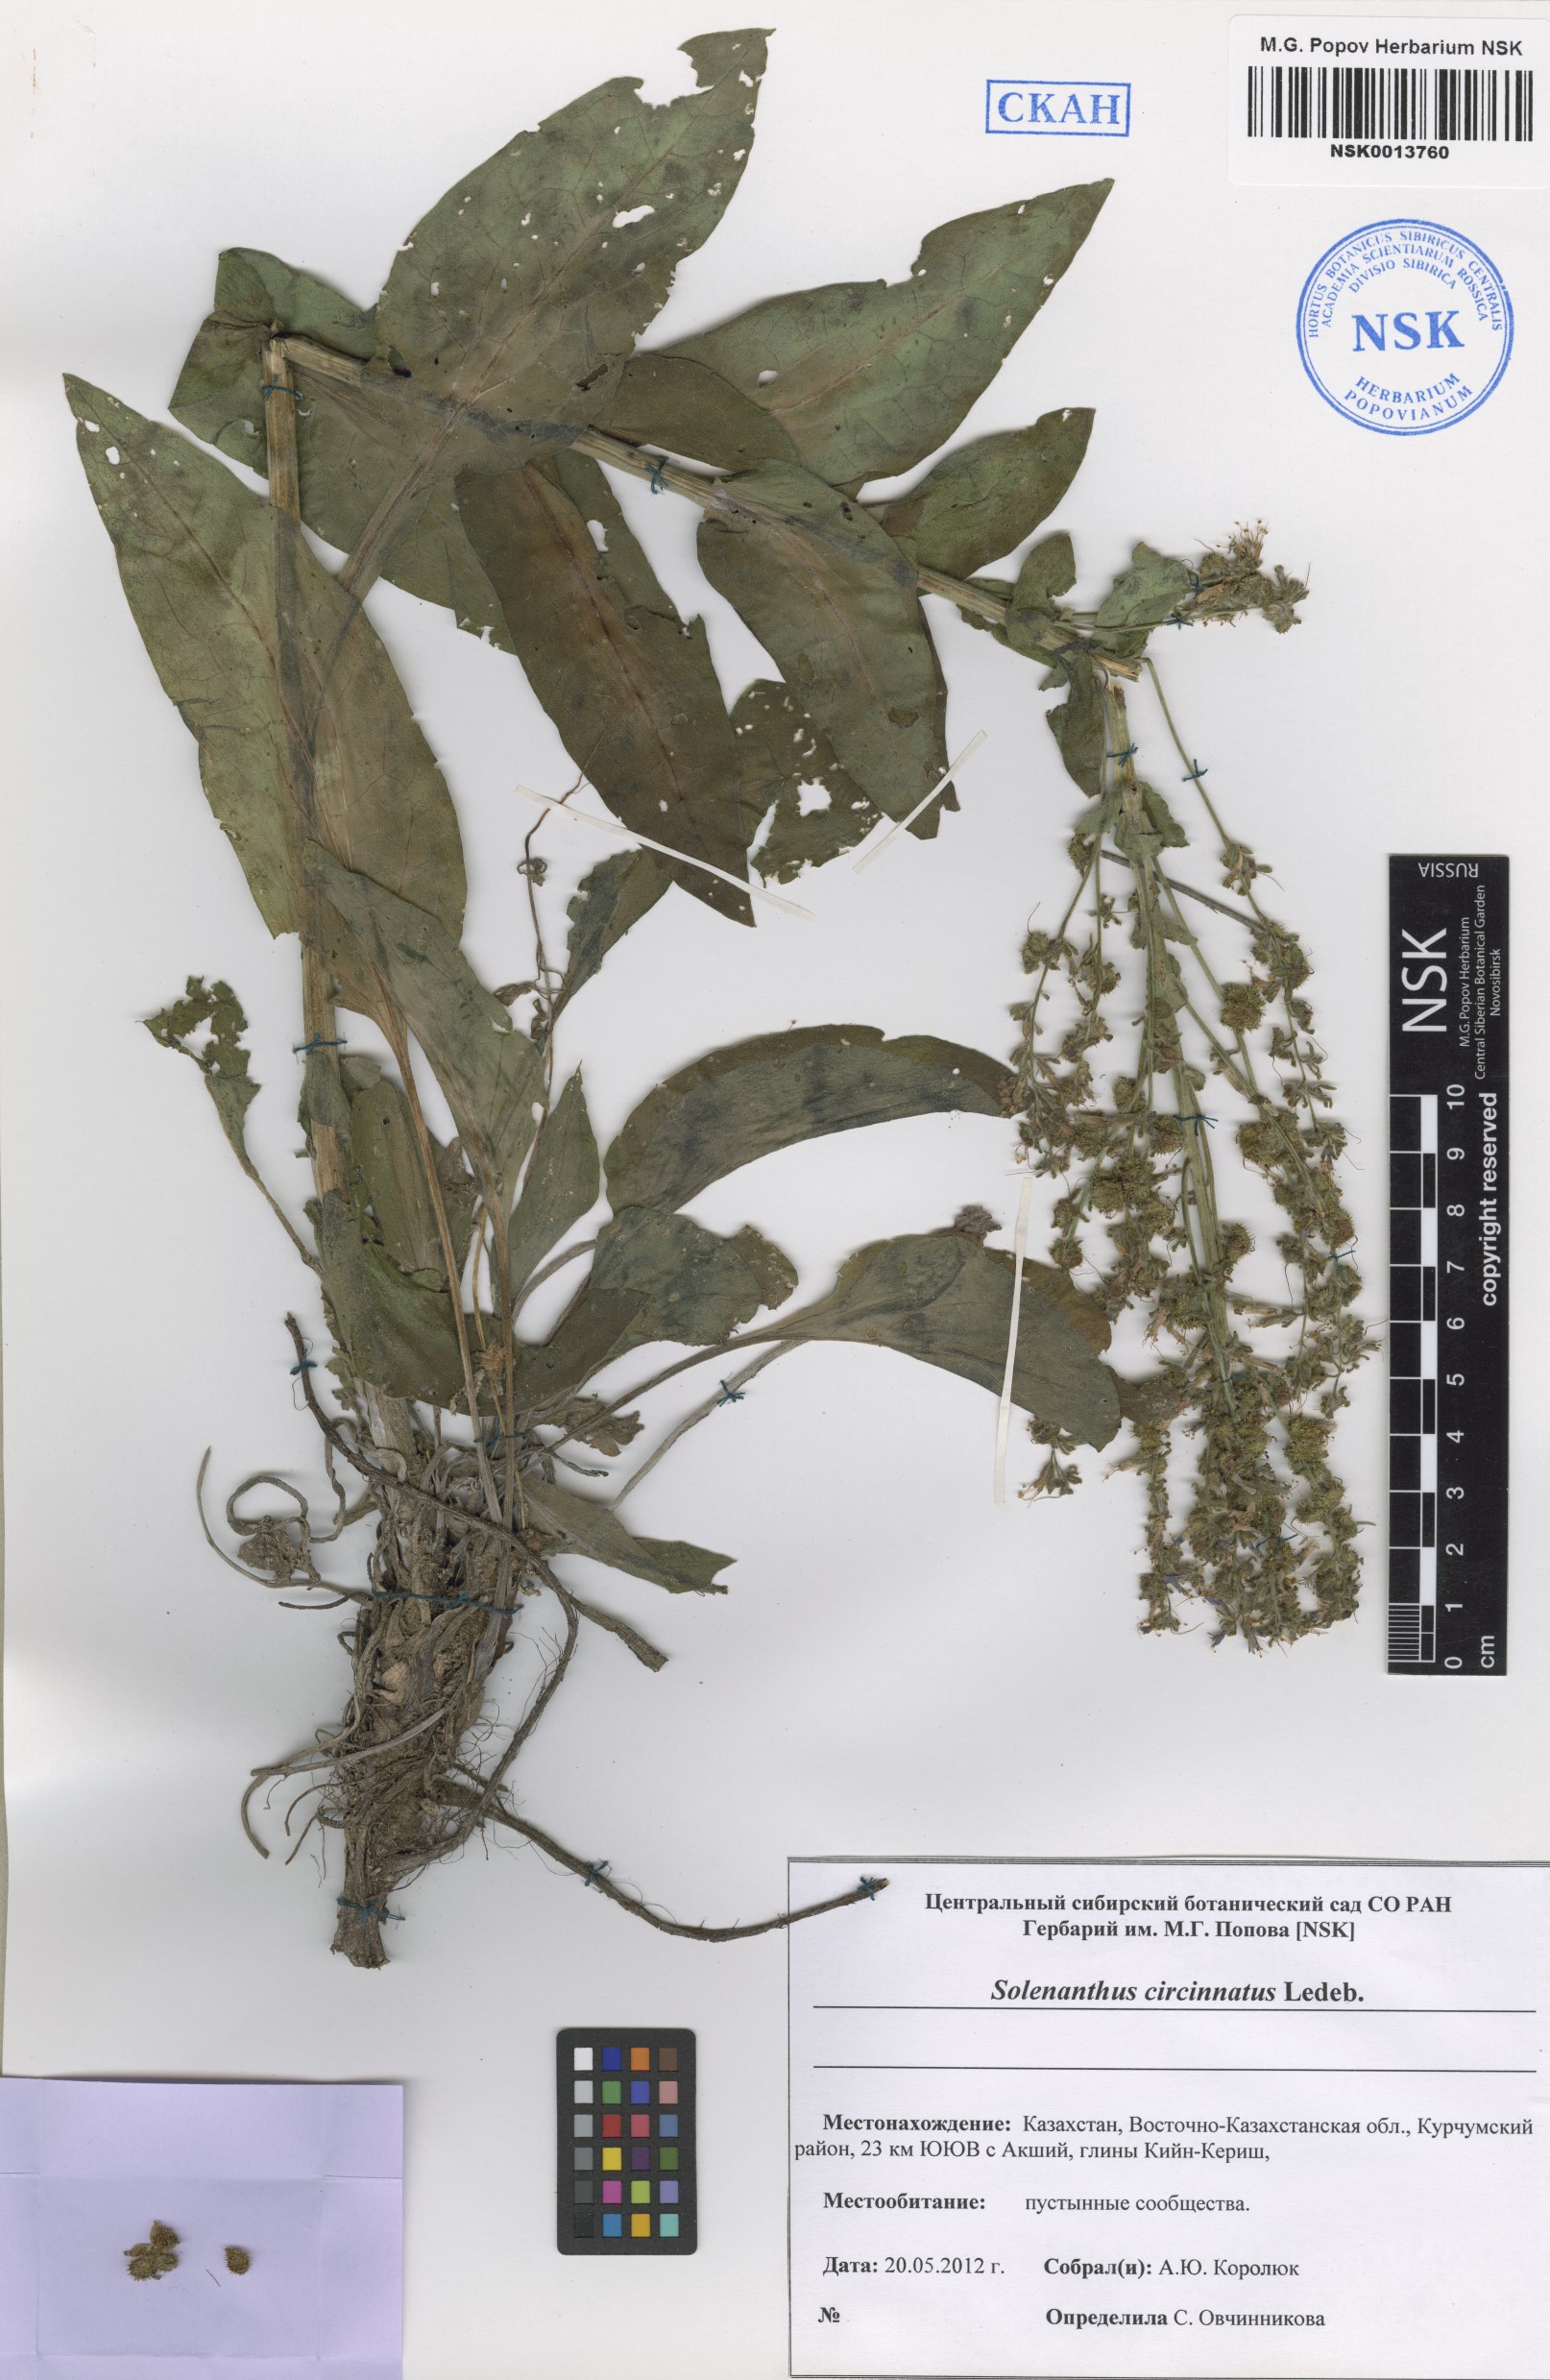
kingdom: Plantae
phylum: Tracheophyta
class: Magnoliopsida
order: Boraginales
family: Boraginaceae
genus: Solenanthus
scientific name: Solenanthus circinnatus
